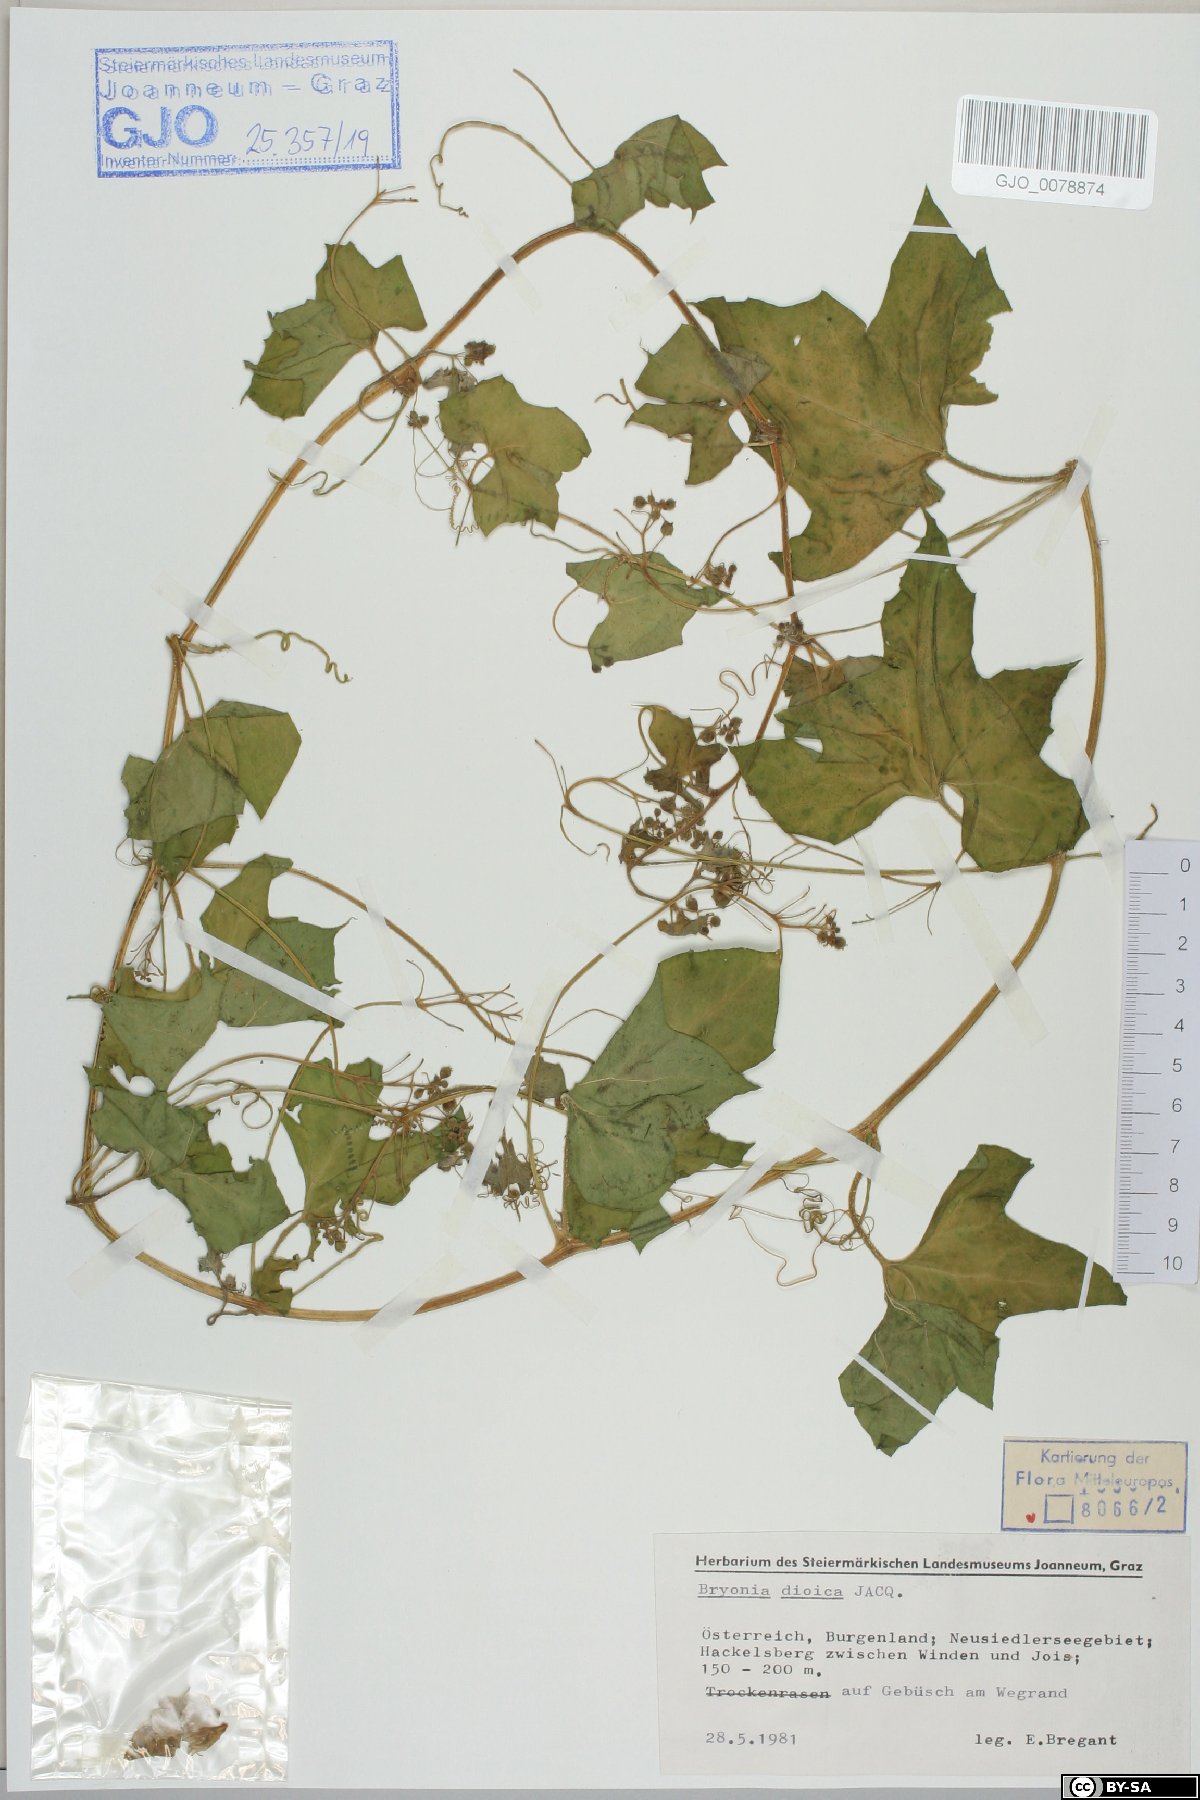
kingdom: Plantae
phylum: Tracheophyta
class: Magnoliopsida
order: Cucurbitales
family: Cucurbitaceae
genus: Bryonia
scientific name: Bryonia dioica
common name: White bryony
